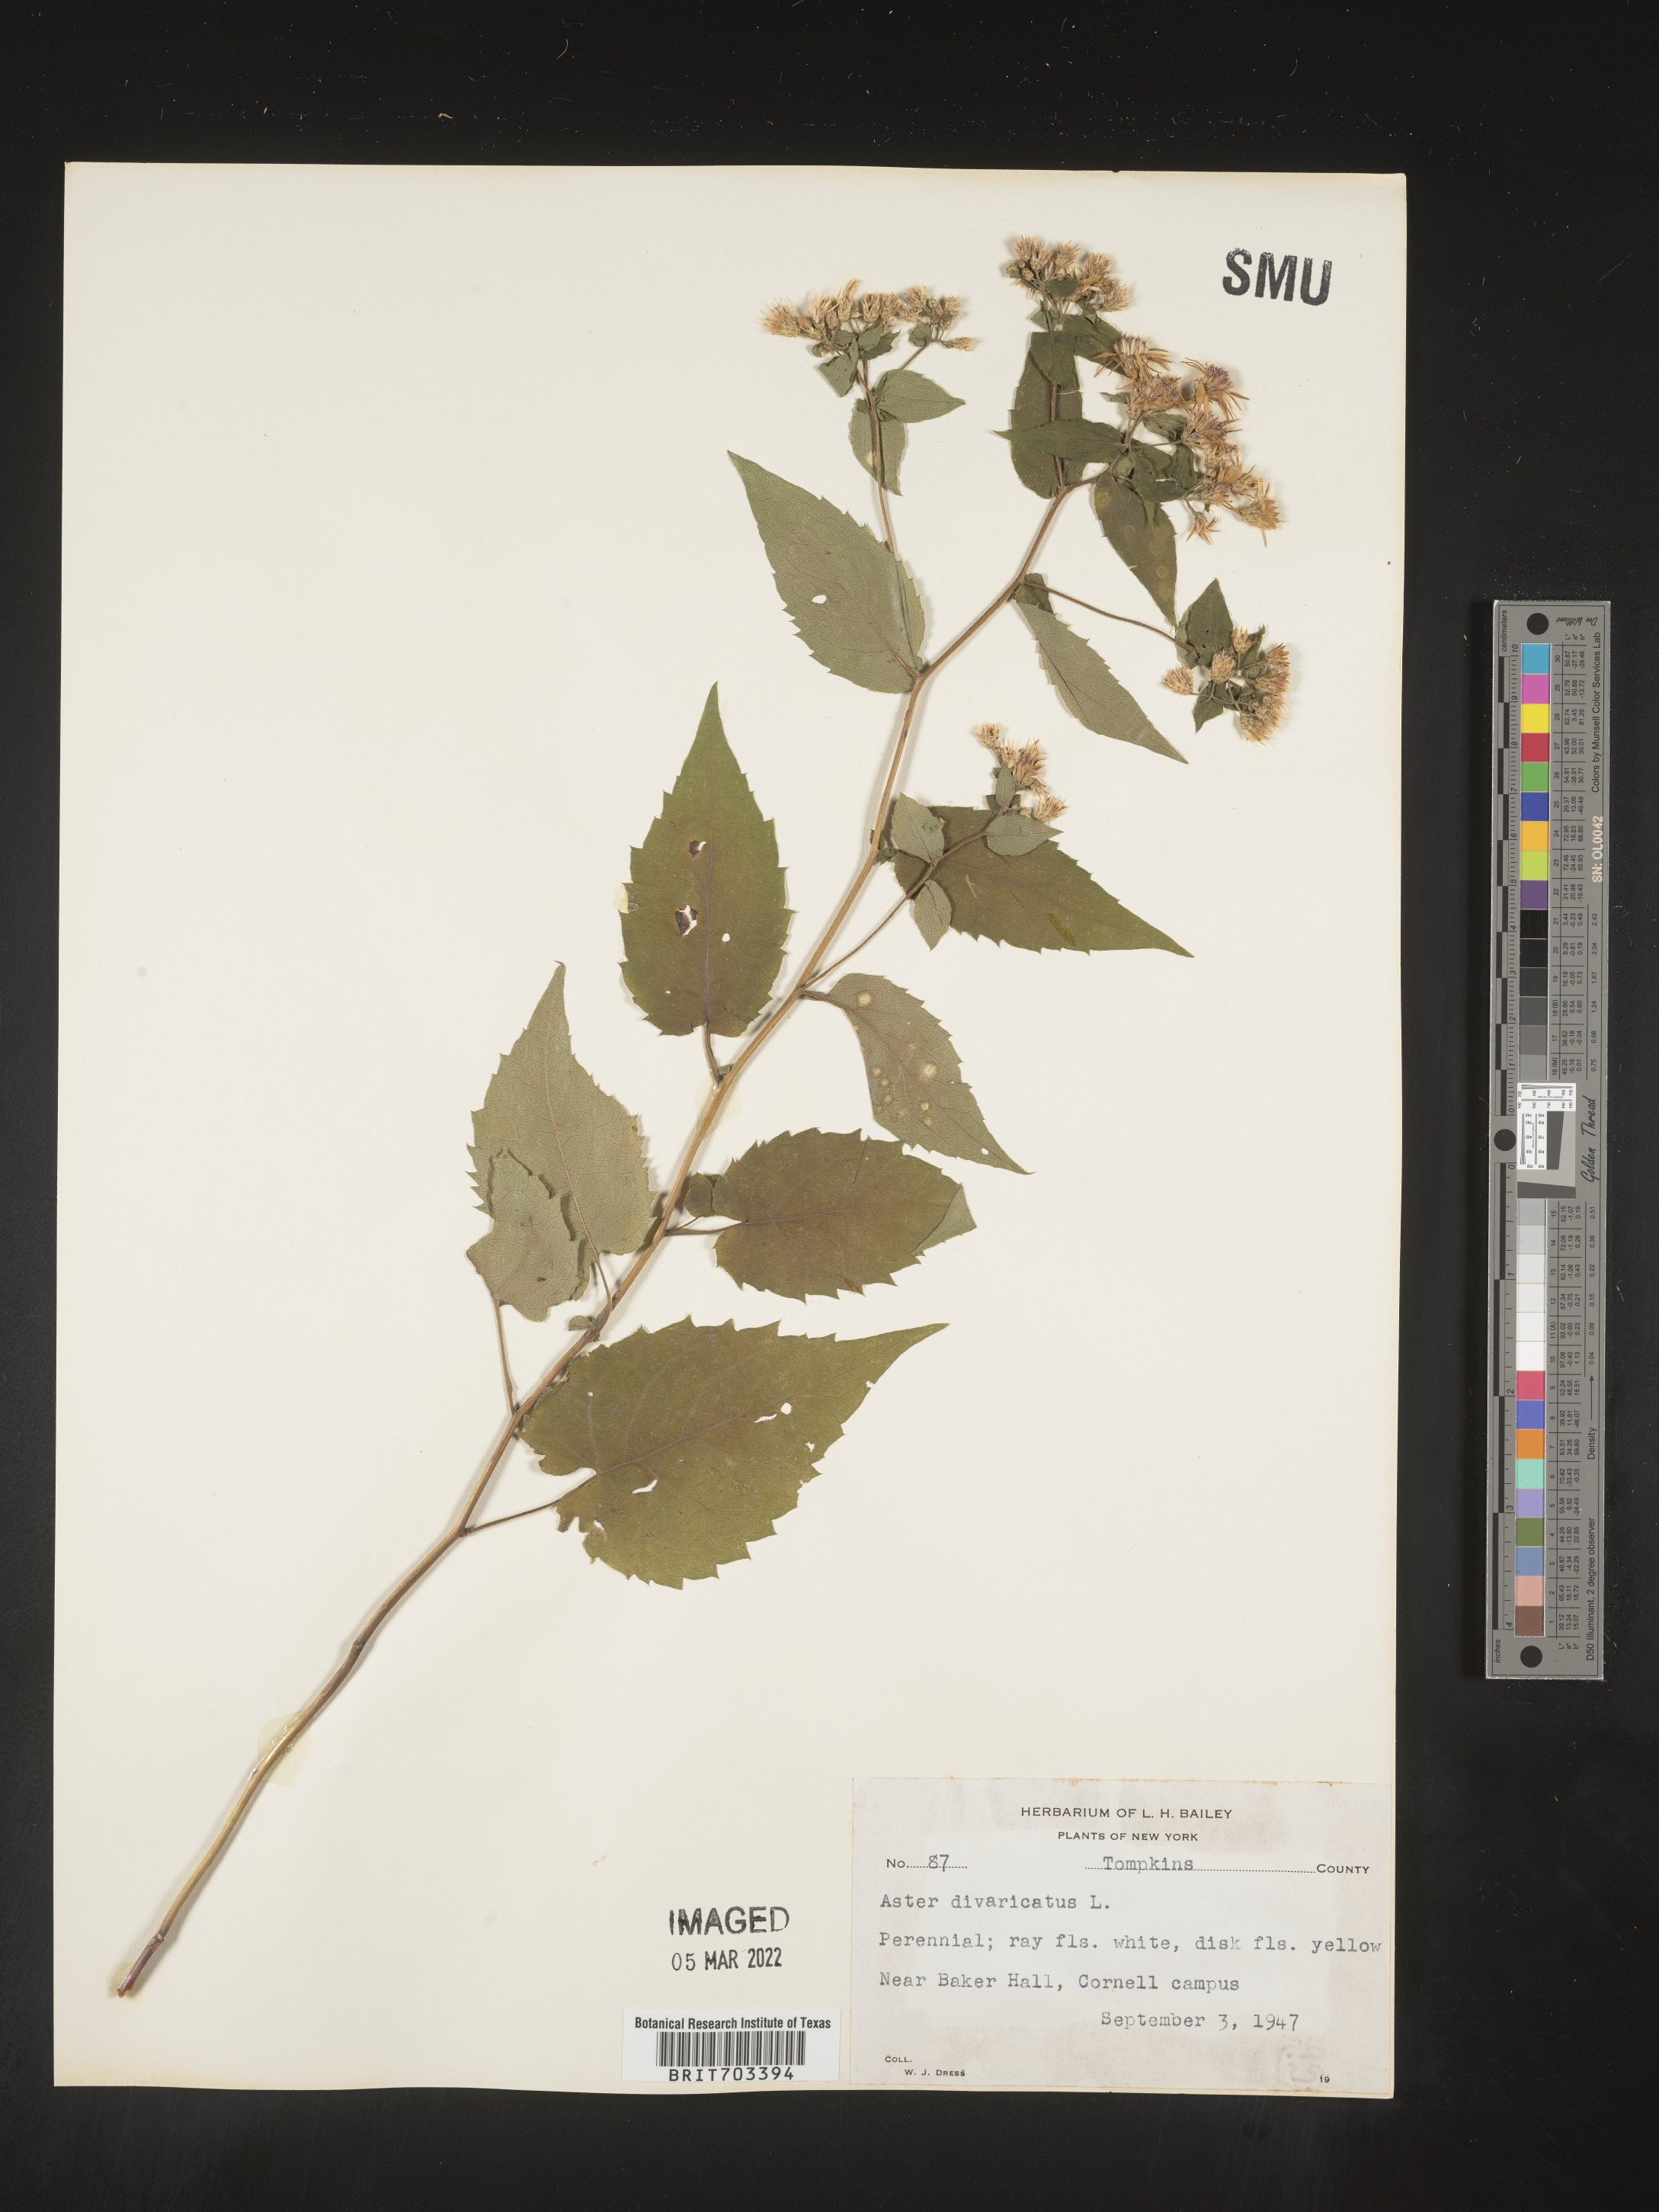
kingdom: Plantae
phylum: Tracheophyta
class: Magnoliopsida
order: Asterales
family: Asteraceae
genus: Eurybia
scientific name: Eurybia divaricata
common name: White wood aster
